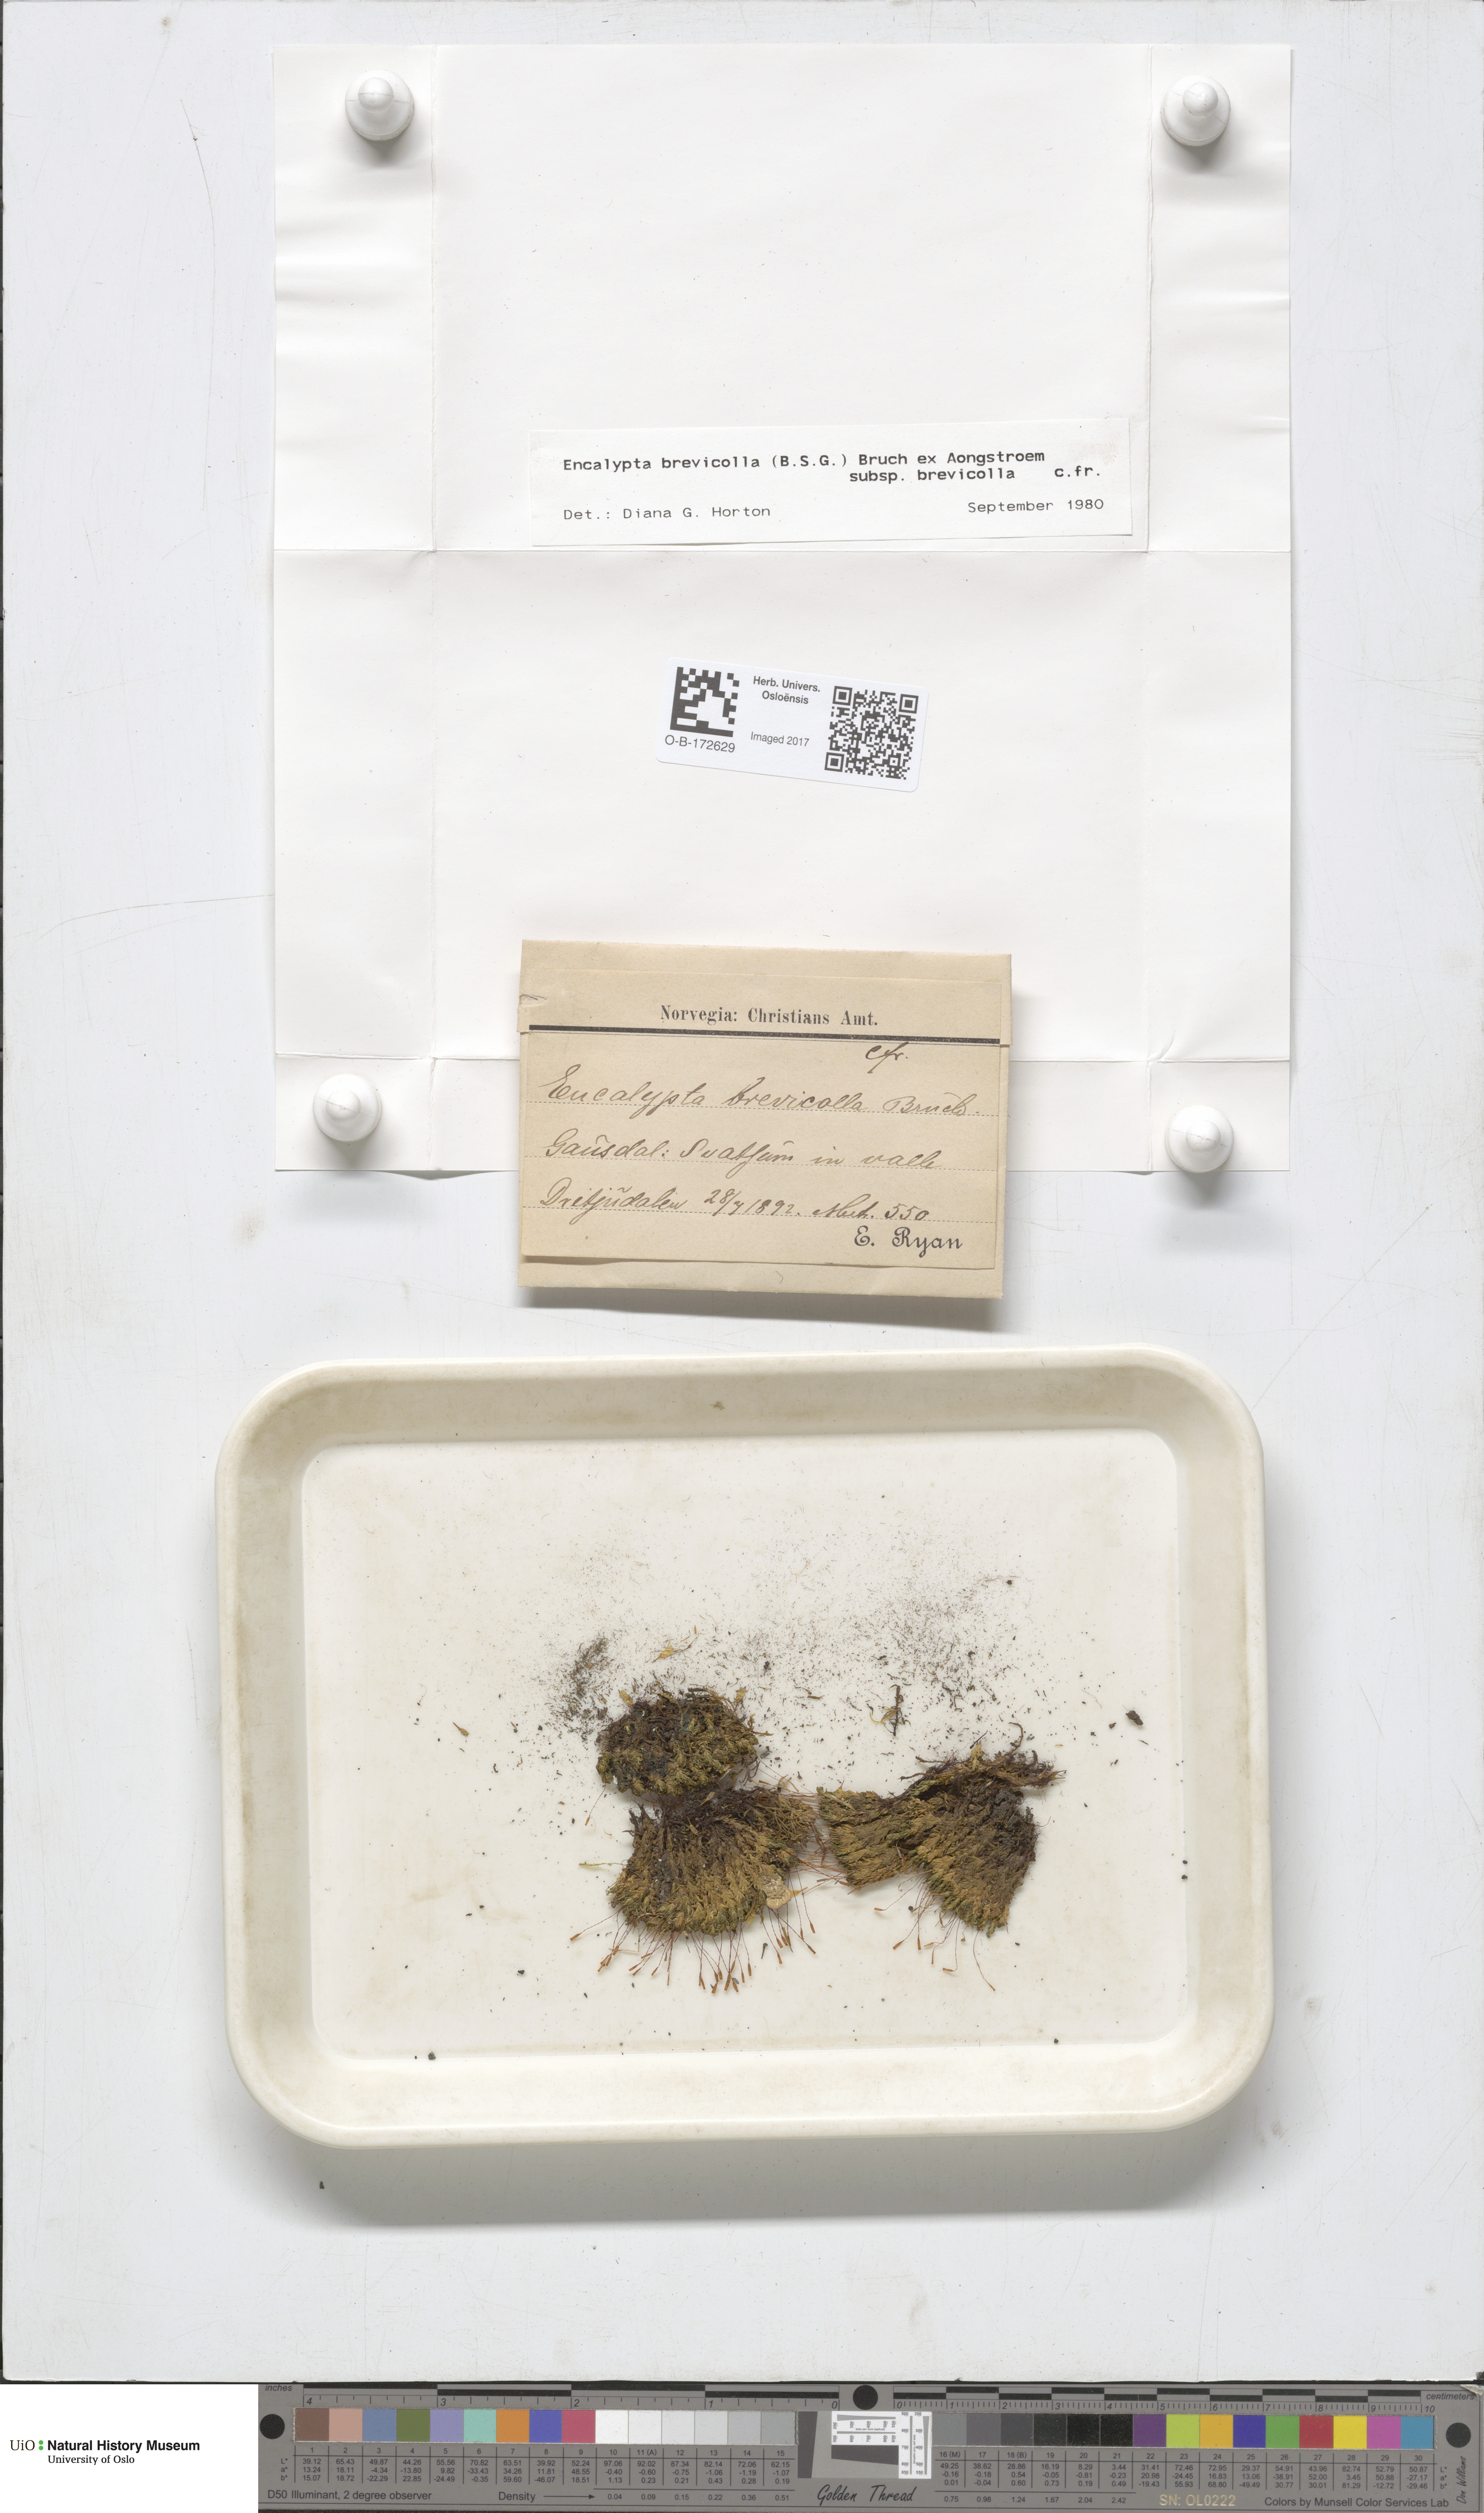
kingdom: Plantae
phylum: Bryophyta
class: Bryopsida
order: Encalyptales
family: Encalyptaceae
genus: Encalypta
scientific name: Encalypta brevicolla
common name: White-mouthed extinguisher-moss
